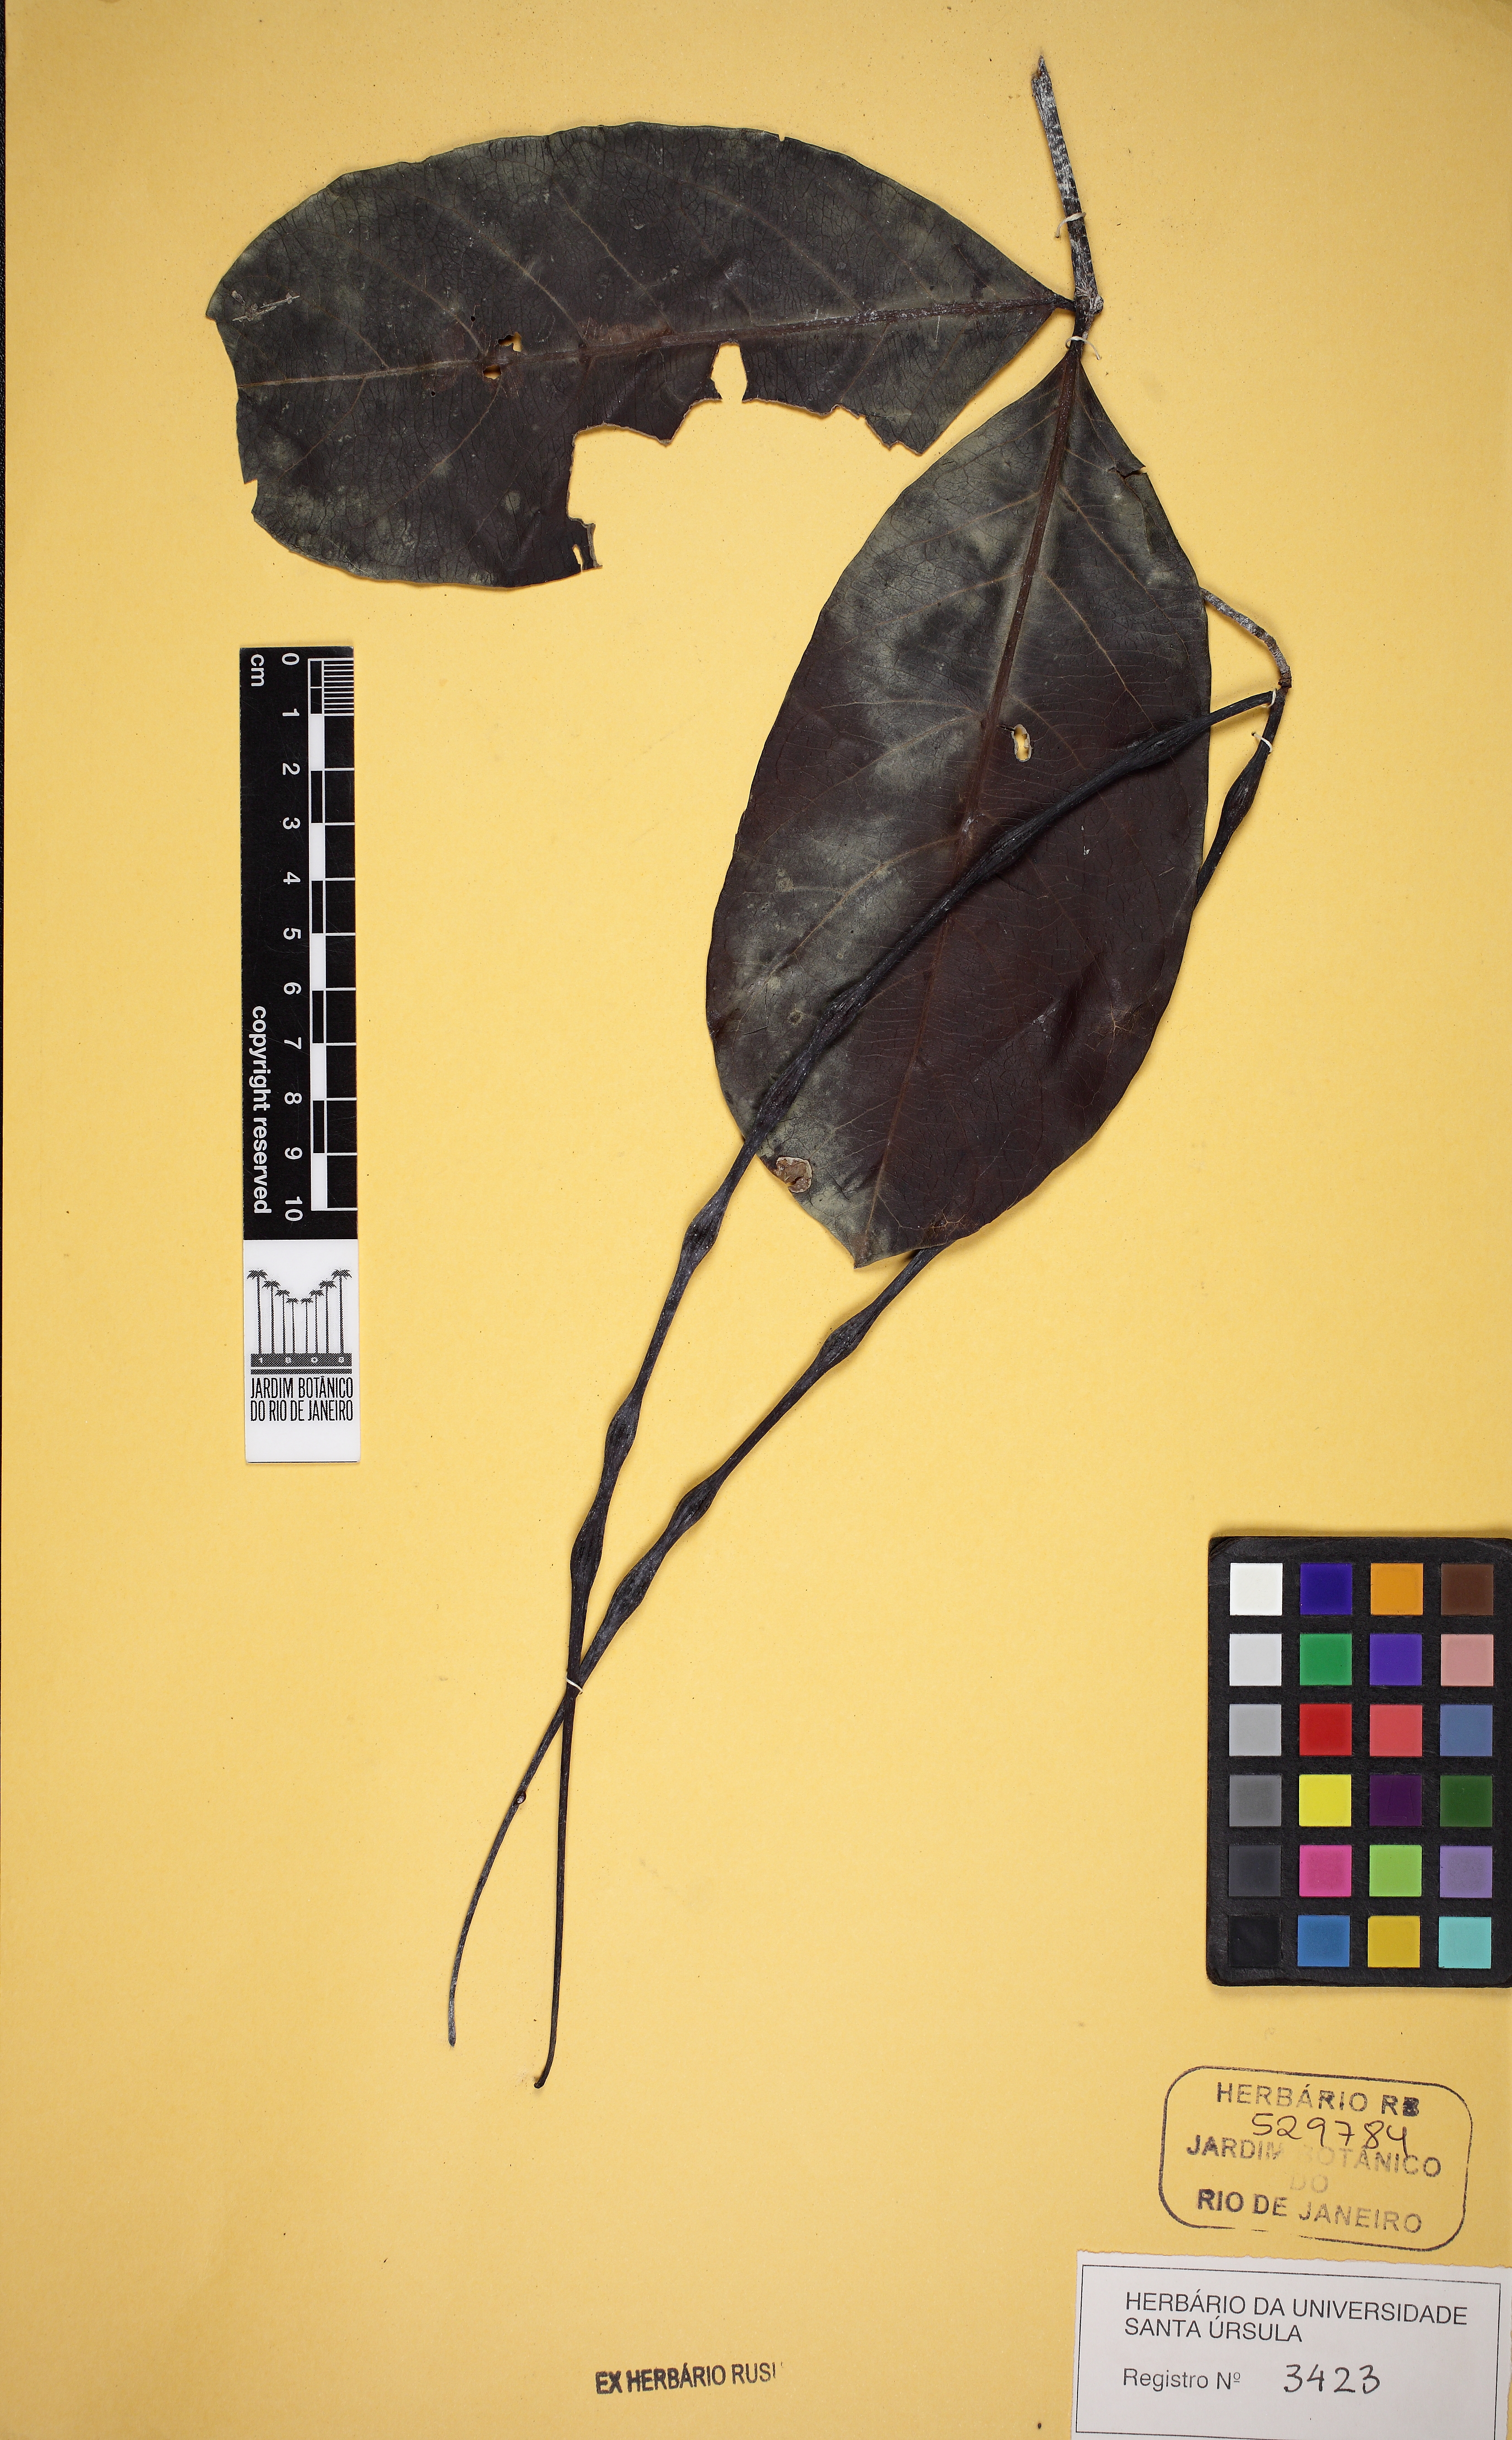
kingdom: Plantae
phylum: Tracheophyta
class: Magnoliopsida
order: Gentianales
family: Apocynaceae
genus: Forsteronia
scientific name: Forsteronia refracta
